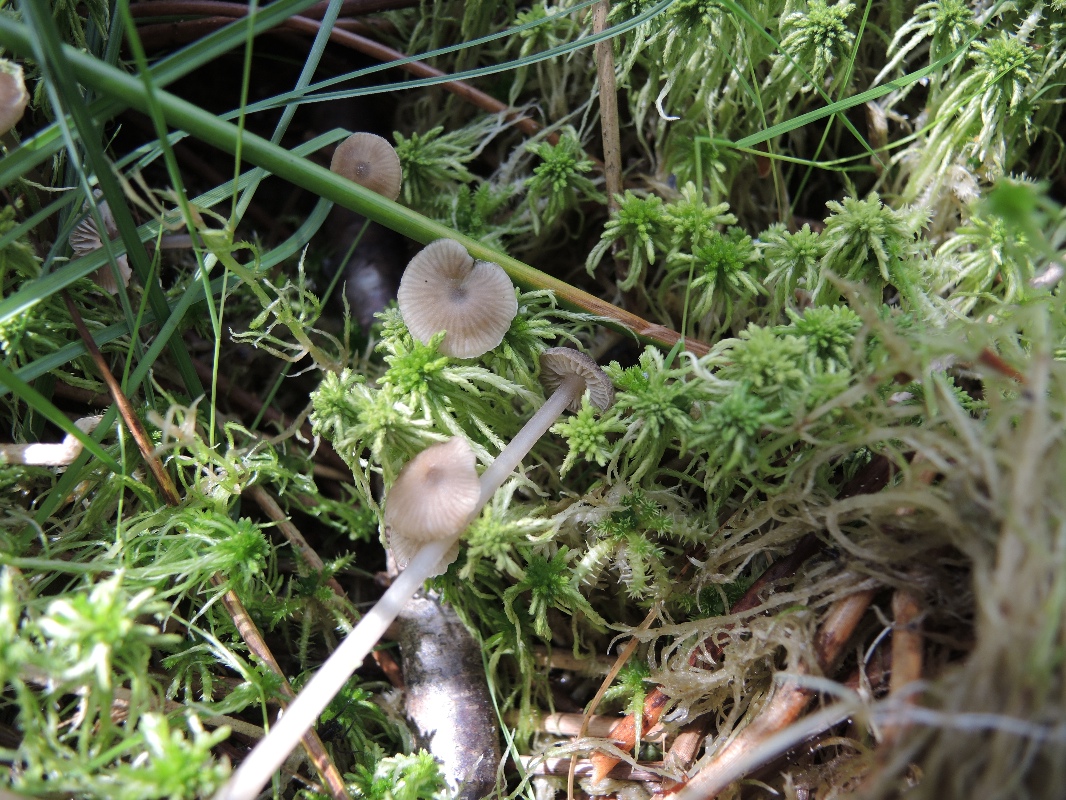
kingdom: Fungi
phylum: Basidiomycota
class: Agaricomycetes
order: Agaricales
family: Lyophyllaceae
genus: Sphagnurus
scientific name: Sphagnurus paluster
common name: tørvemos-gråblad
